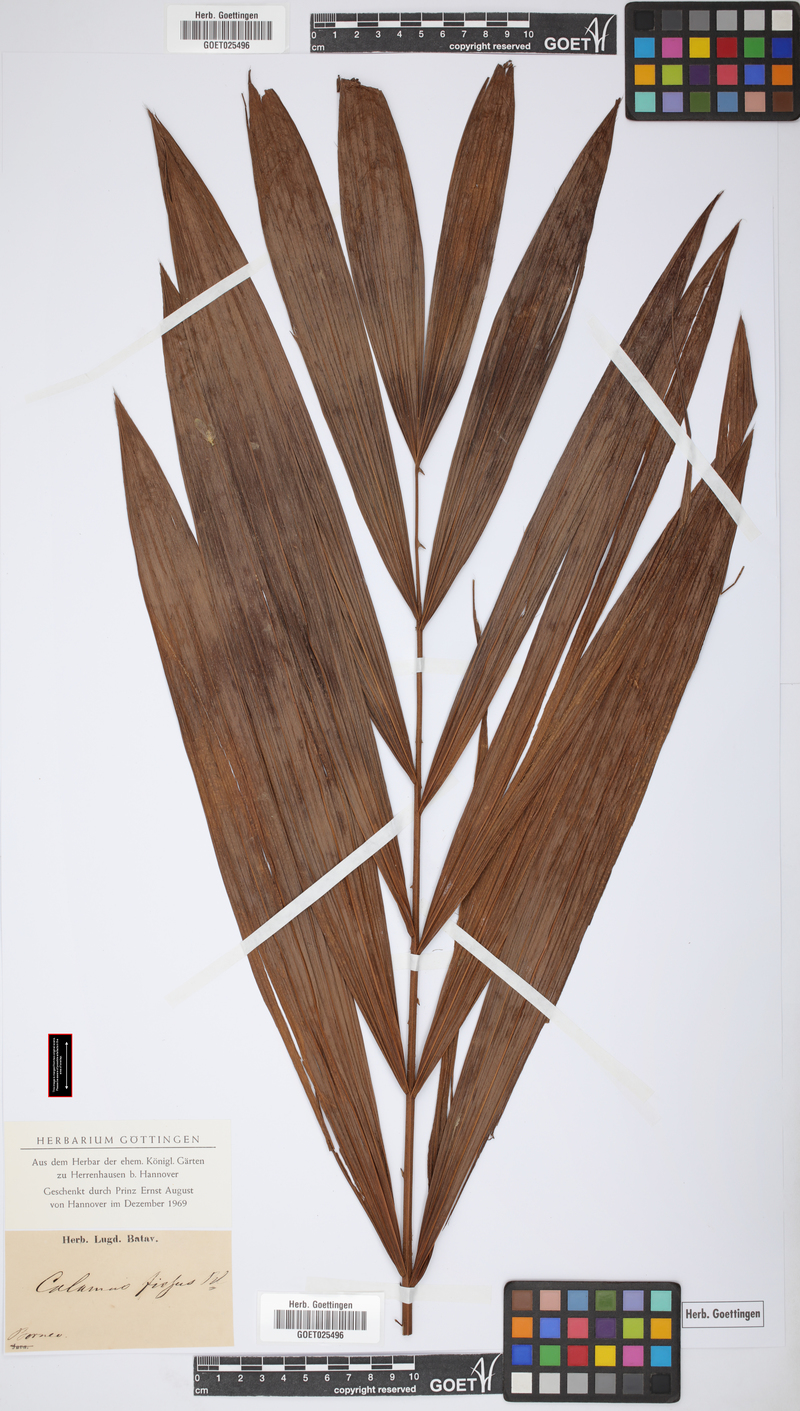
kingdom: Plantae
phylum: Tracheophyta
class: Liliopsida
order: Arecales
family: Arecaceae
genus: Calamus
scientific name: Calamus melanochaetes
